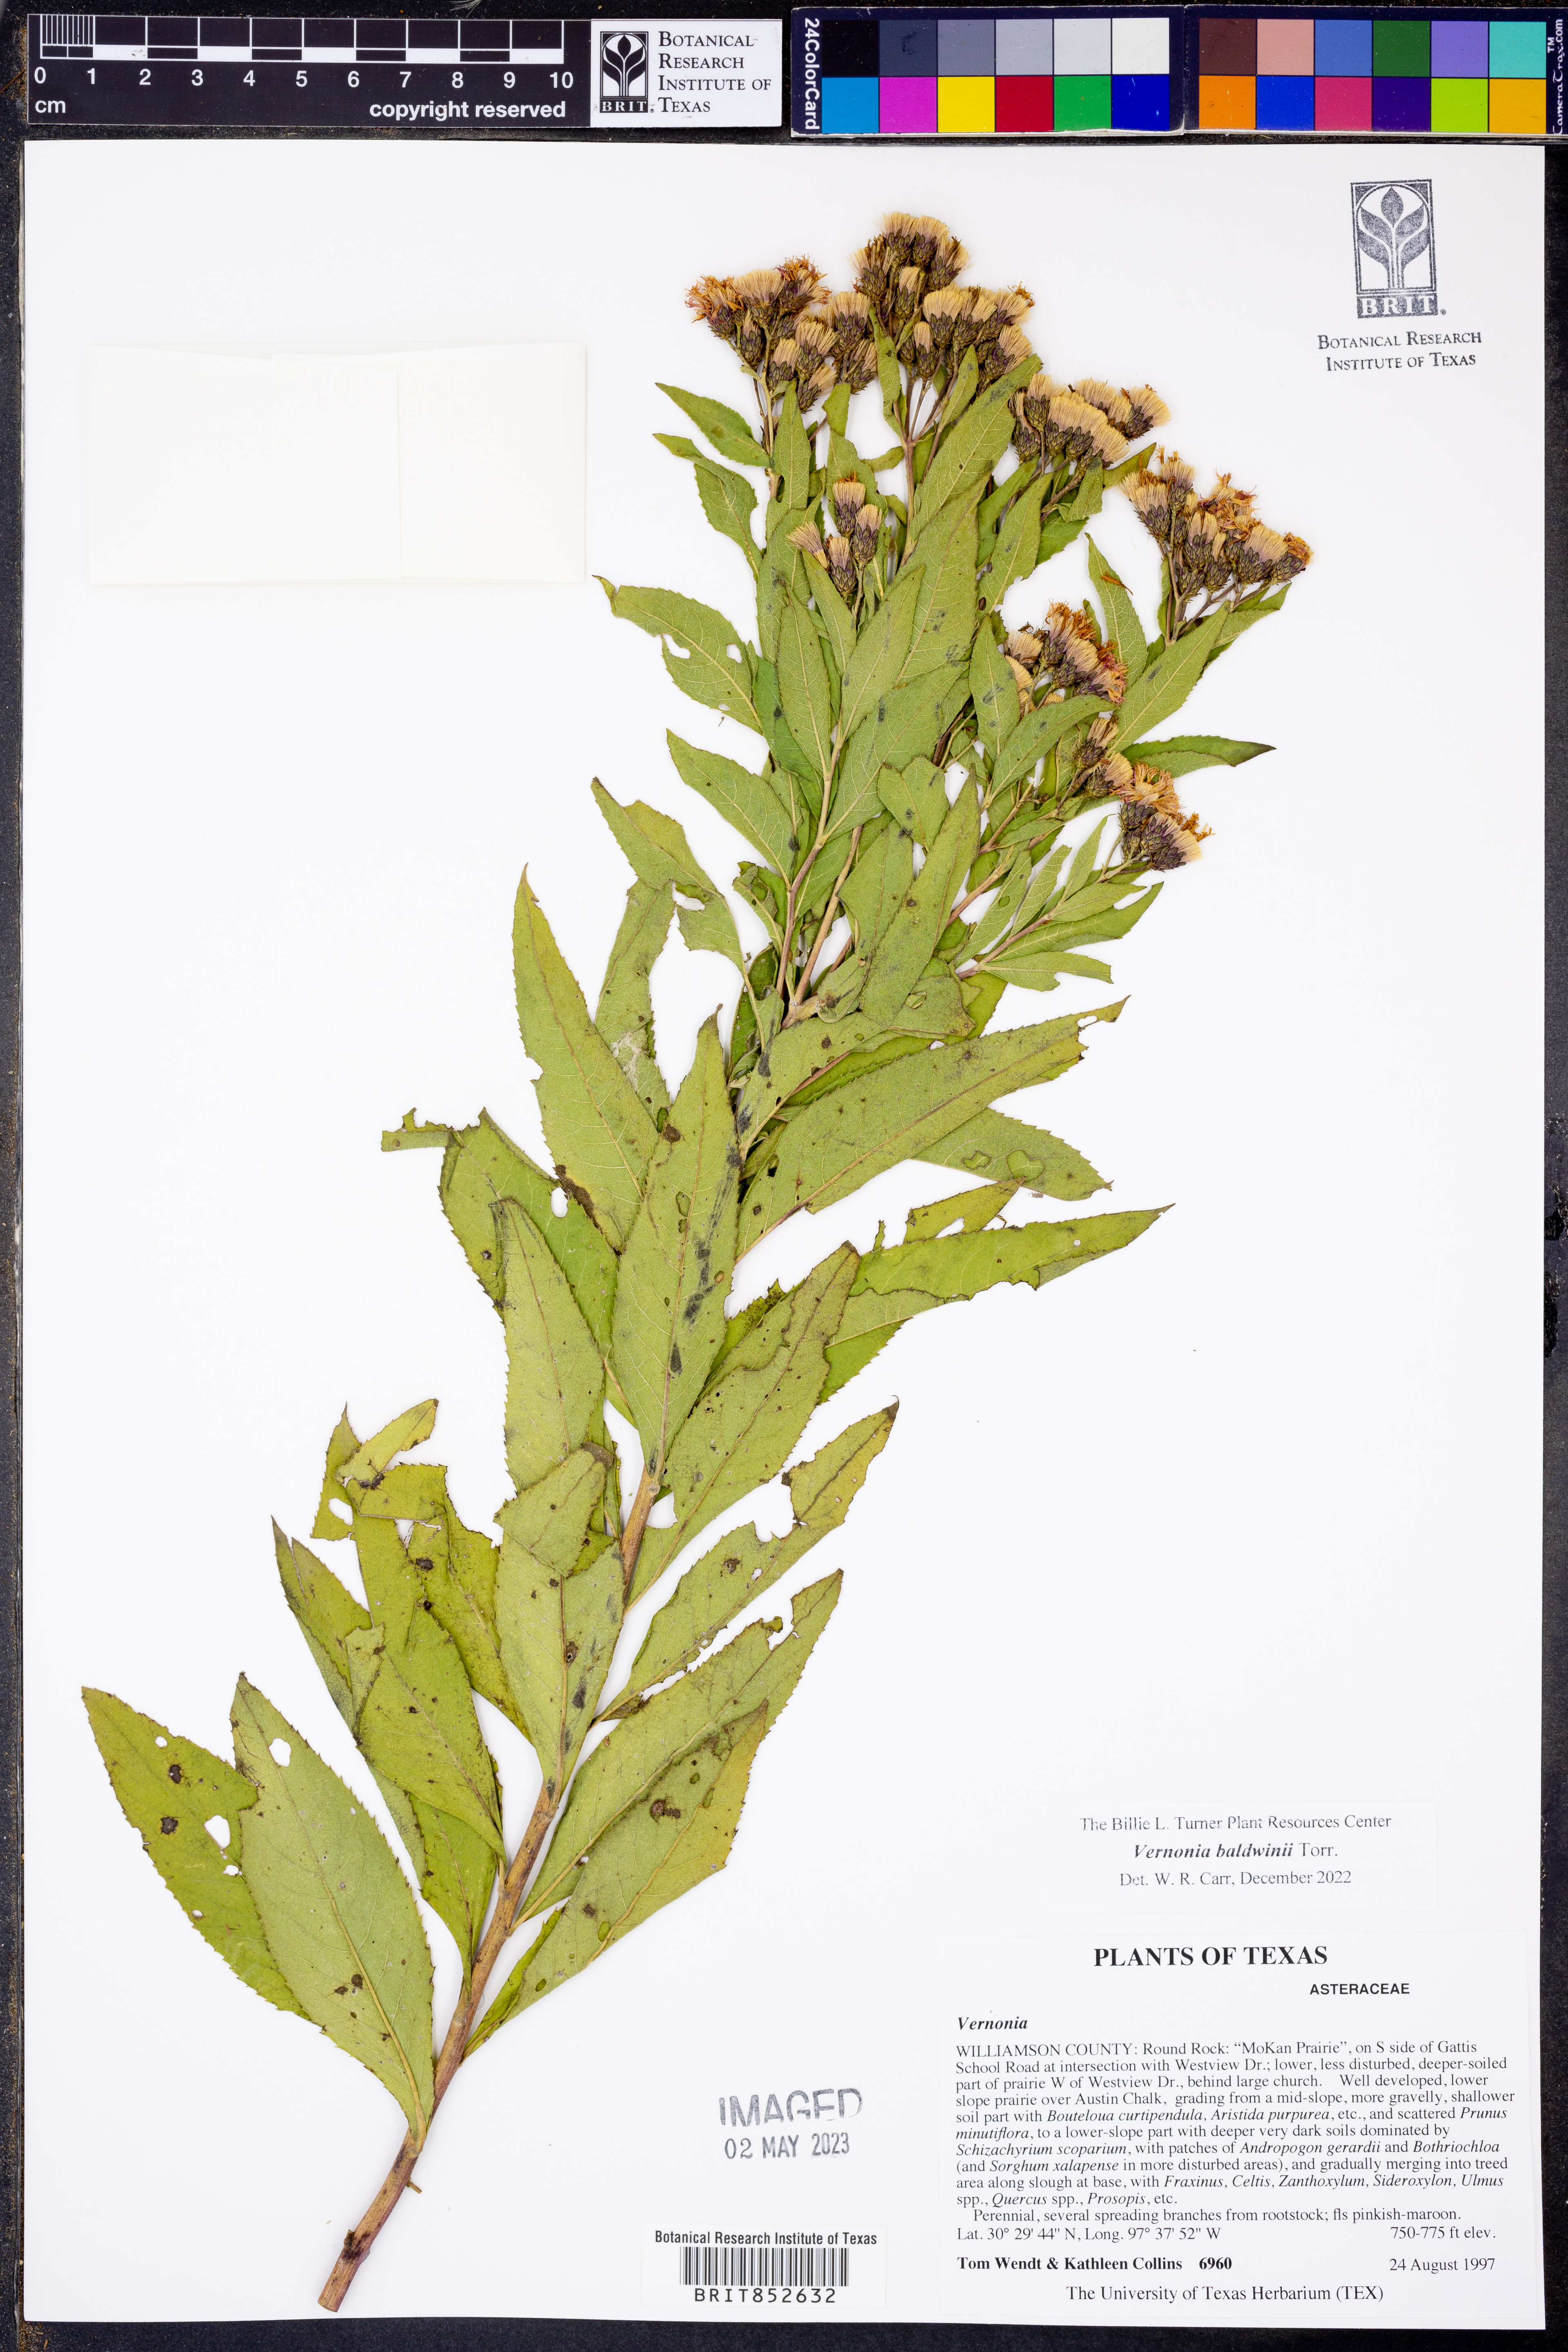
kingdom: Plantae
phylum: Tracheophyta
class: Magnoliopsida
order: Asterales
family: Asteraceae
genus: Vernonia
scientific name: Vernonia baldwinii
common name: Western ironweed
